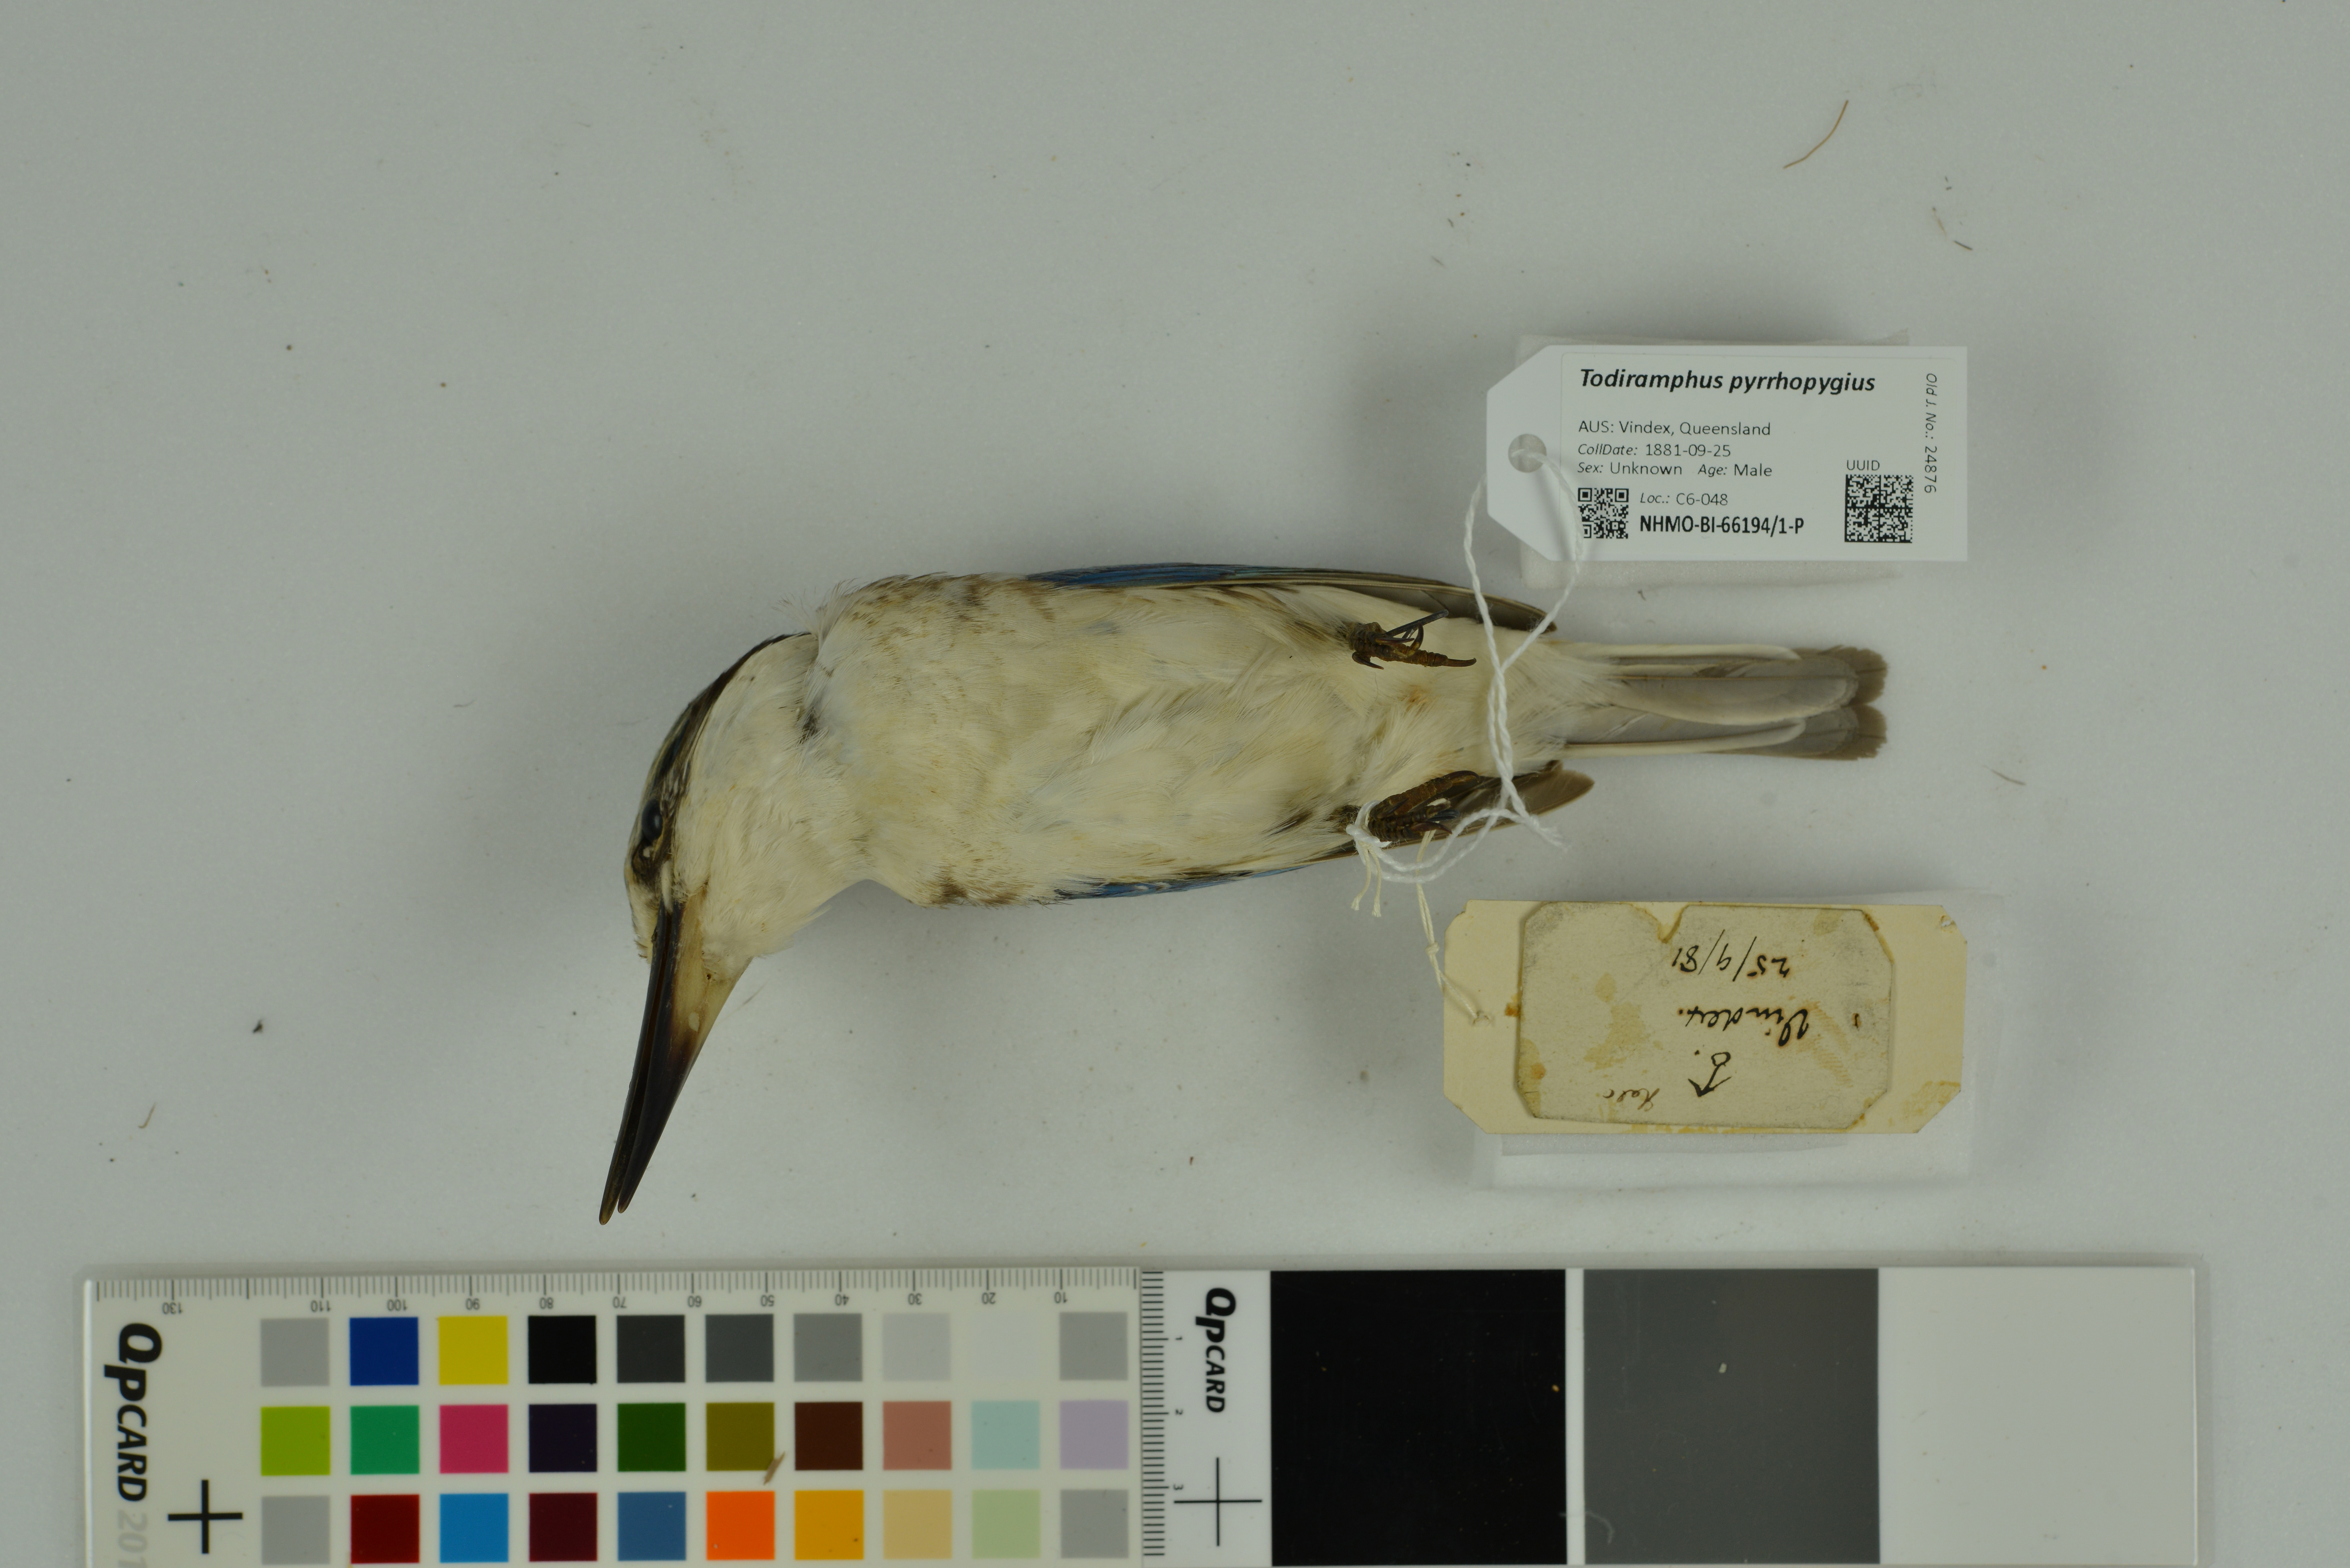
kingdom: Animalia
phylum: Chordata
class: Aves
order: Coraciiformes
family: Alcedinidae
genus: Todiramphus
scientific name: Todiramphus pyrrhopygius
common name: Red-backed kingfisher
